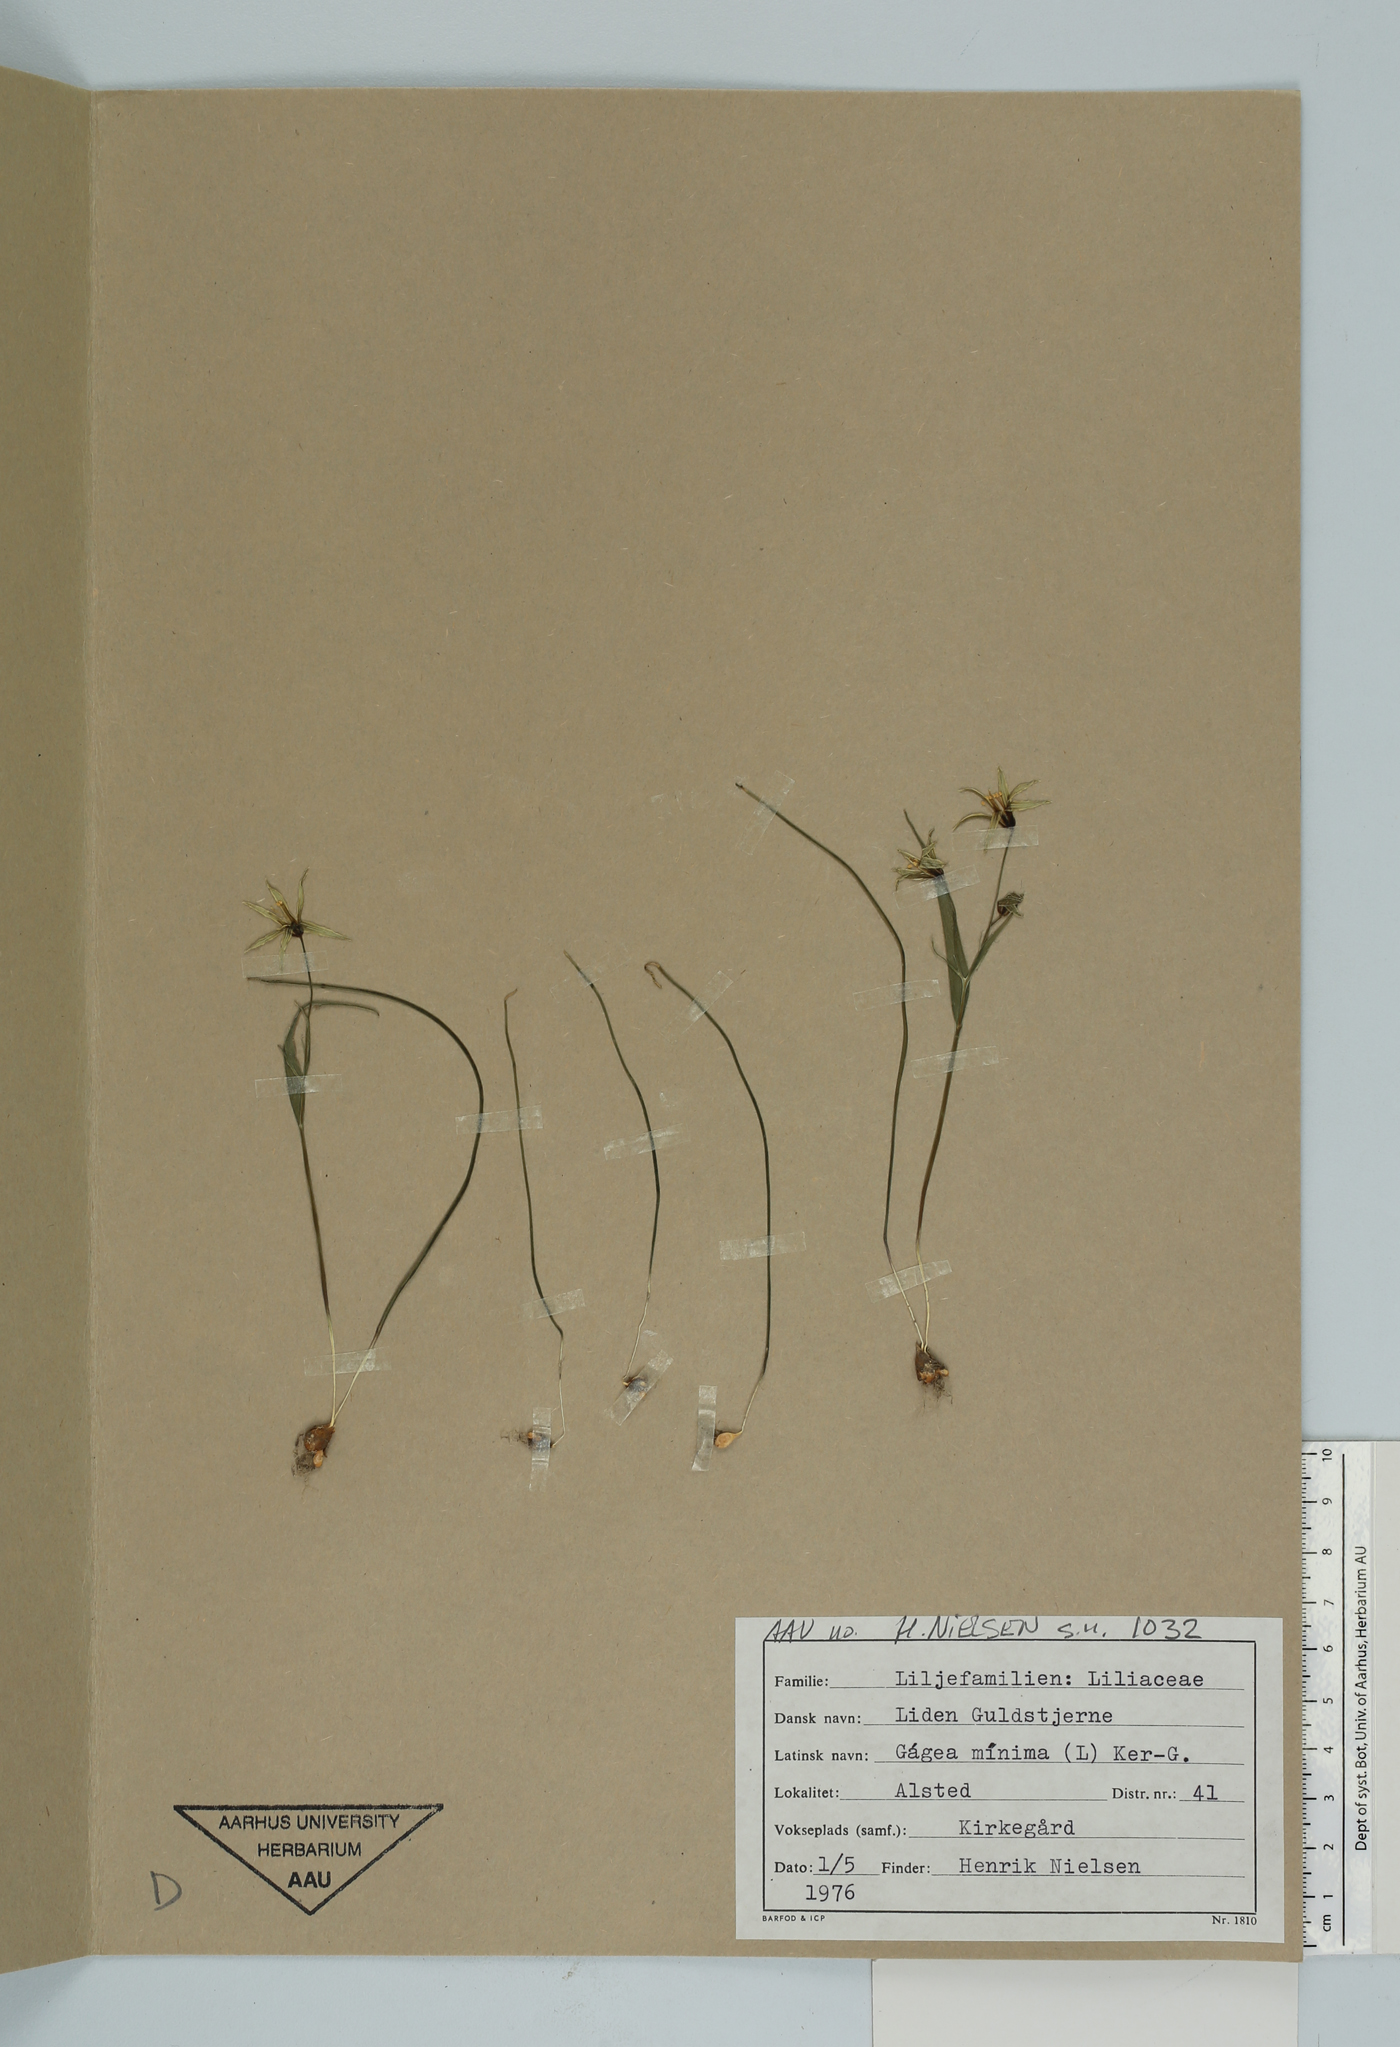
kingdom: Plantae
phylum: Tracheophyta
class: Liliopsida
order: Liliales
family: Liliaceae
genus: Gagea
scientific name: Gagea minima
